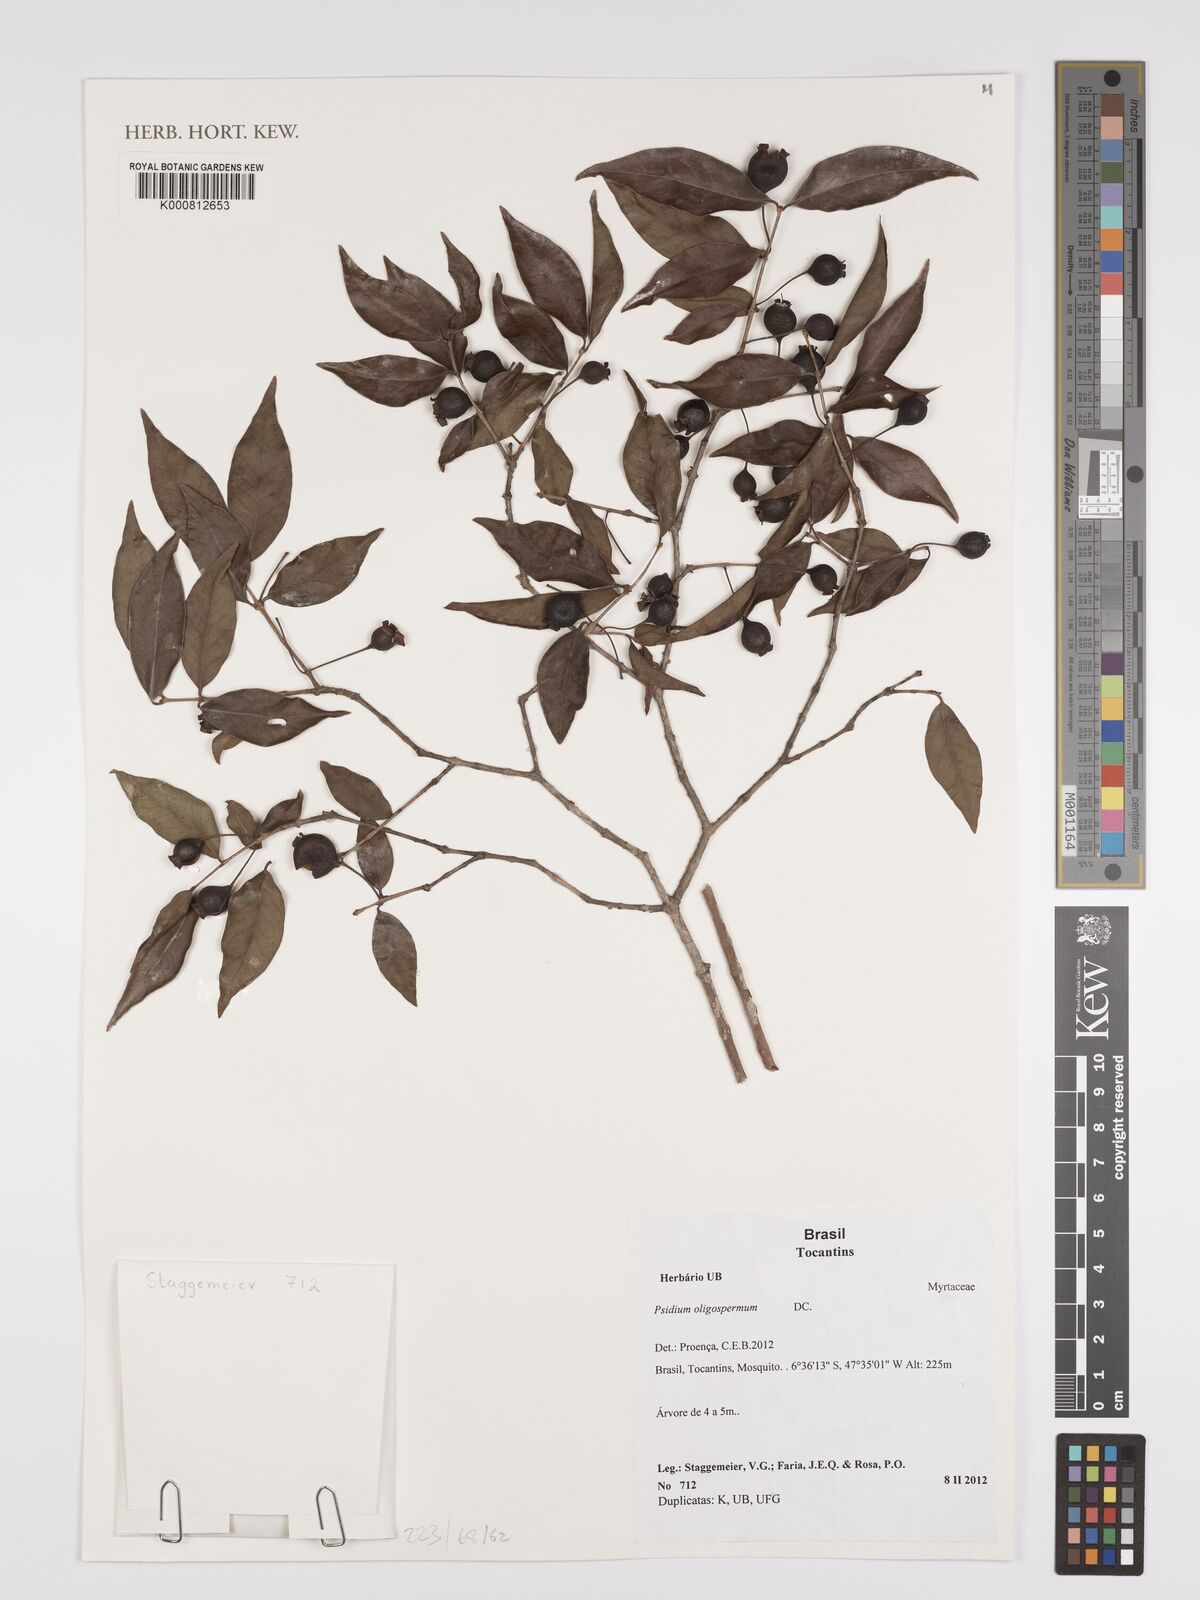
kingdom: Plantae
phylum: Tracheophyta
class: Magnoliopsida
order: Myrtales
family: Myrtaceae
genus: Psidium
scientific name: Psidium oligospermum
